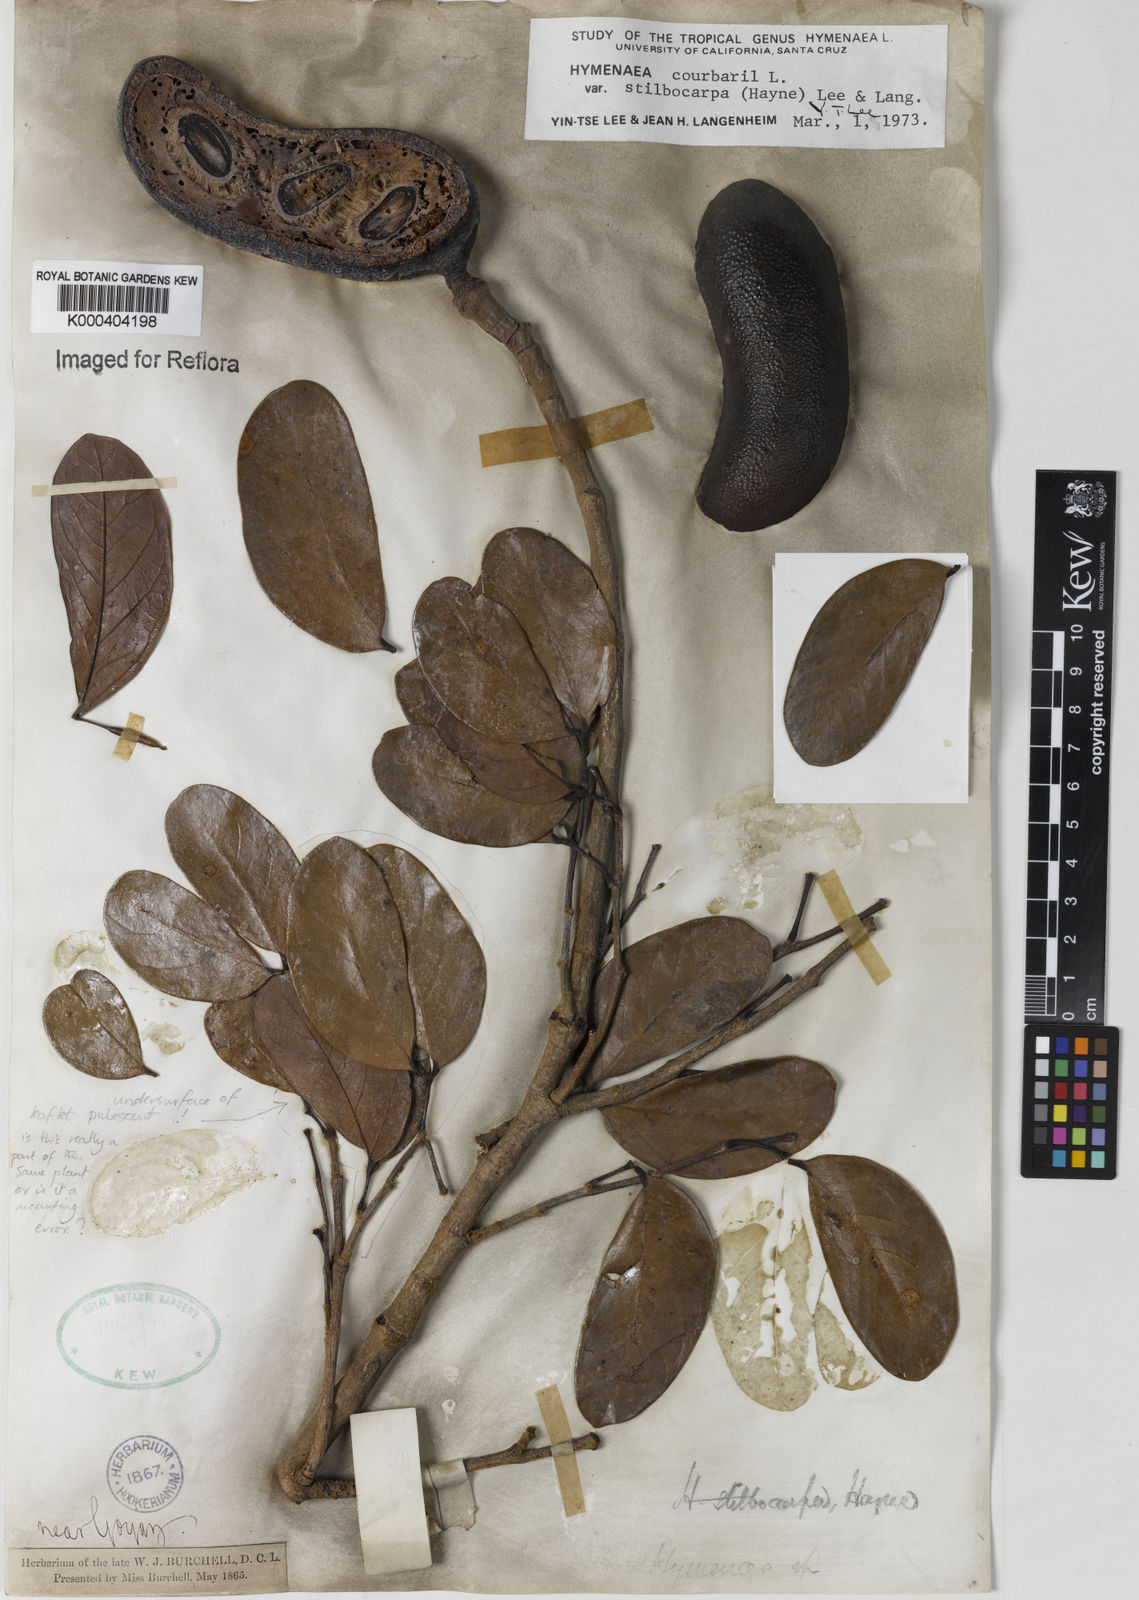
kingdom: Plantae
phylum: Tracheophyta
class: Magnoliopsida
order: Fabales
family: Fabaceae
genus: Hymenaea
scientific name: Hymenaea courbaril
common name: Brazilian copal
